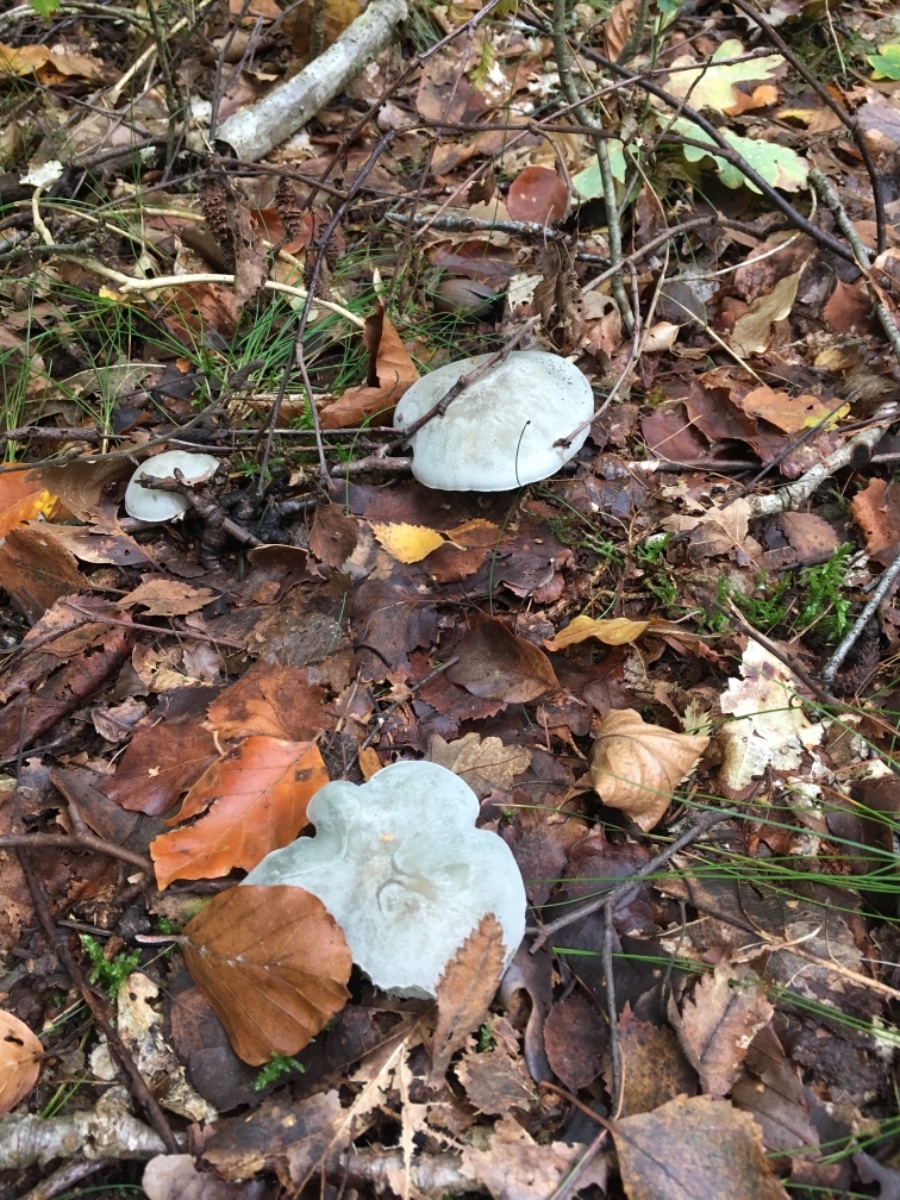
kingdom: Fungi
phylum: Basidiomycota
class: Agaricomycetes
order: Agaricales
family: Tricholomataceae
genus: Clitocybe
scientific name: Clitocybe odora
